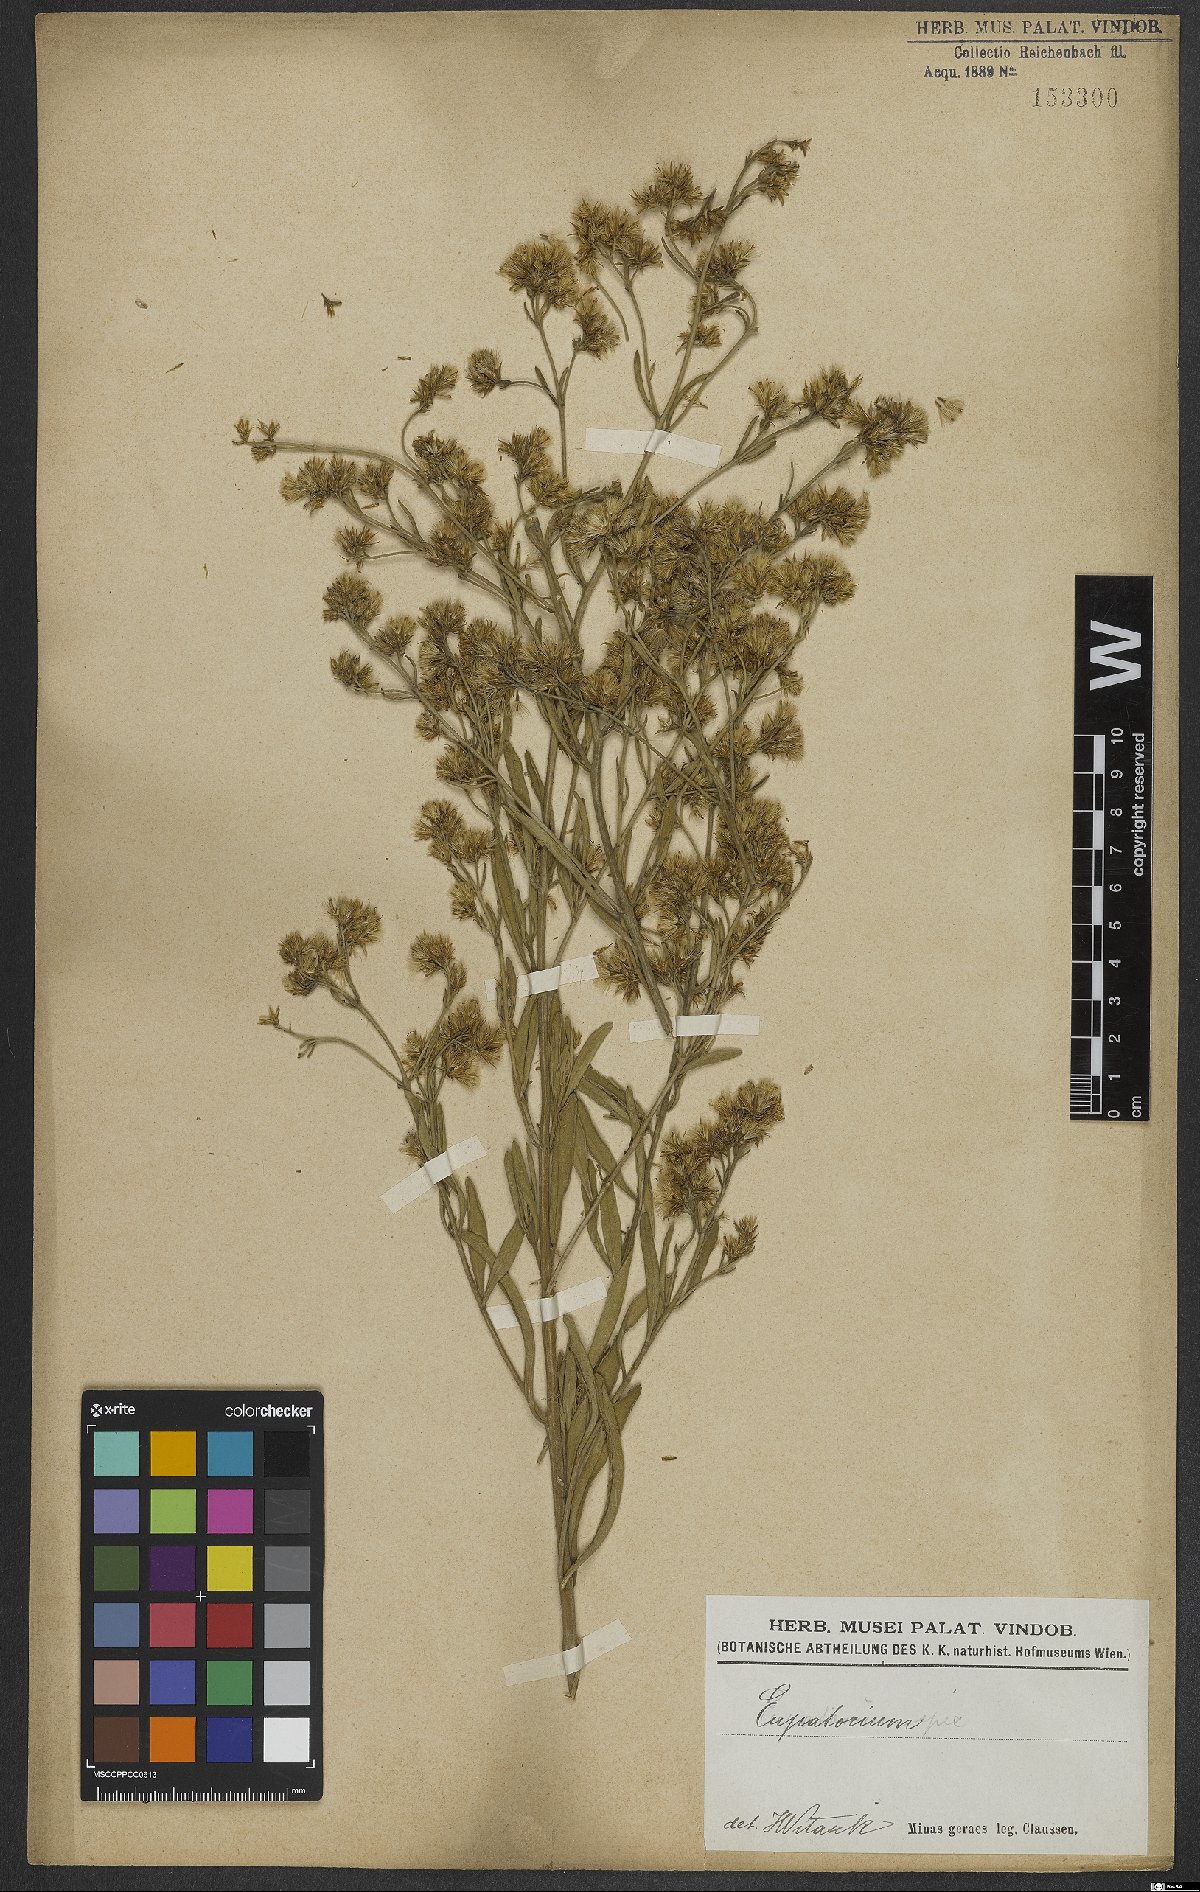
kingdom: Plantae
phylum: Tracheophyta
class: Magnoliopsida
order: Asterales
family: Asteraceae
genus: Eupatorium
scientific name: Eupatorium
